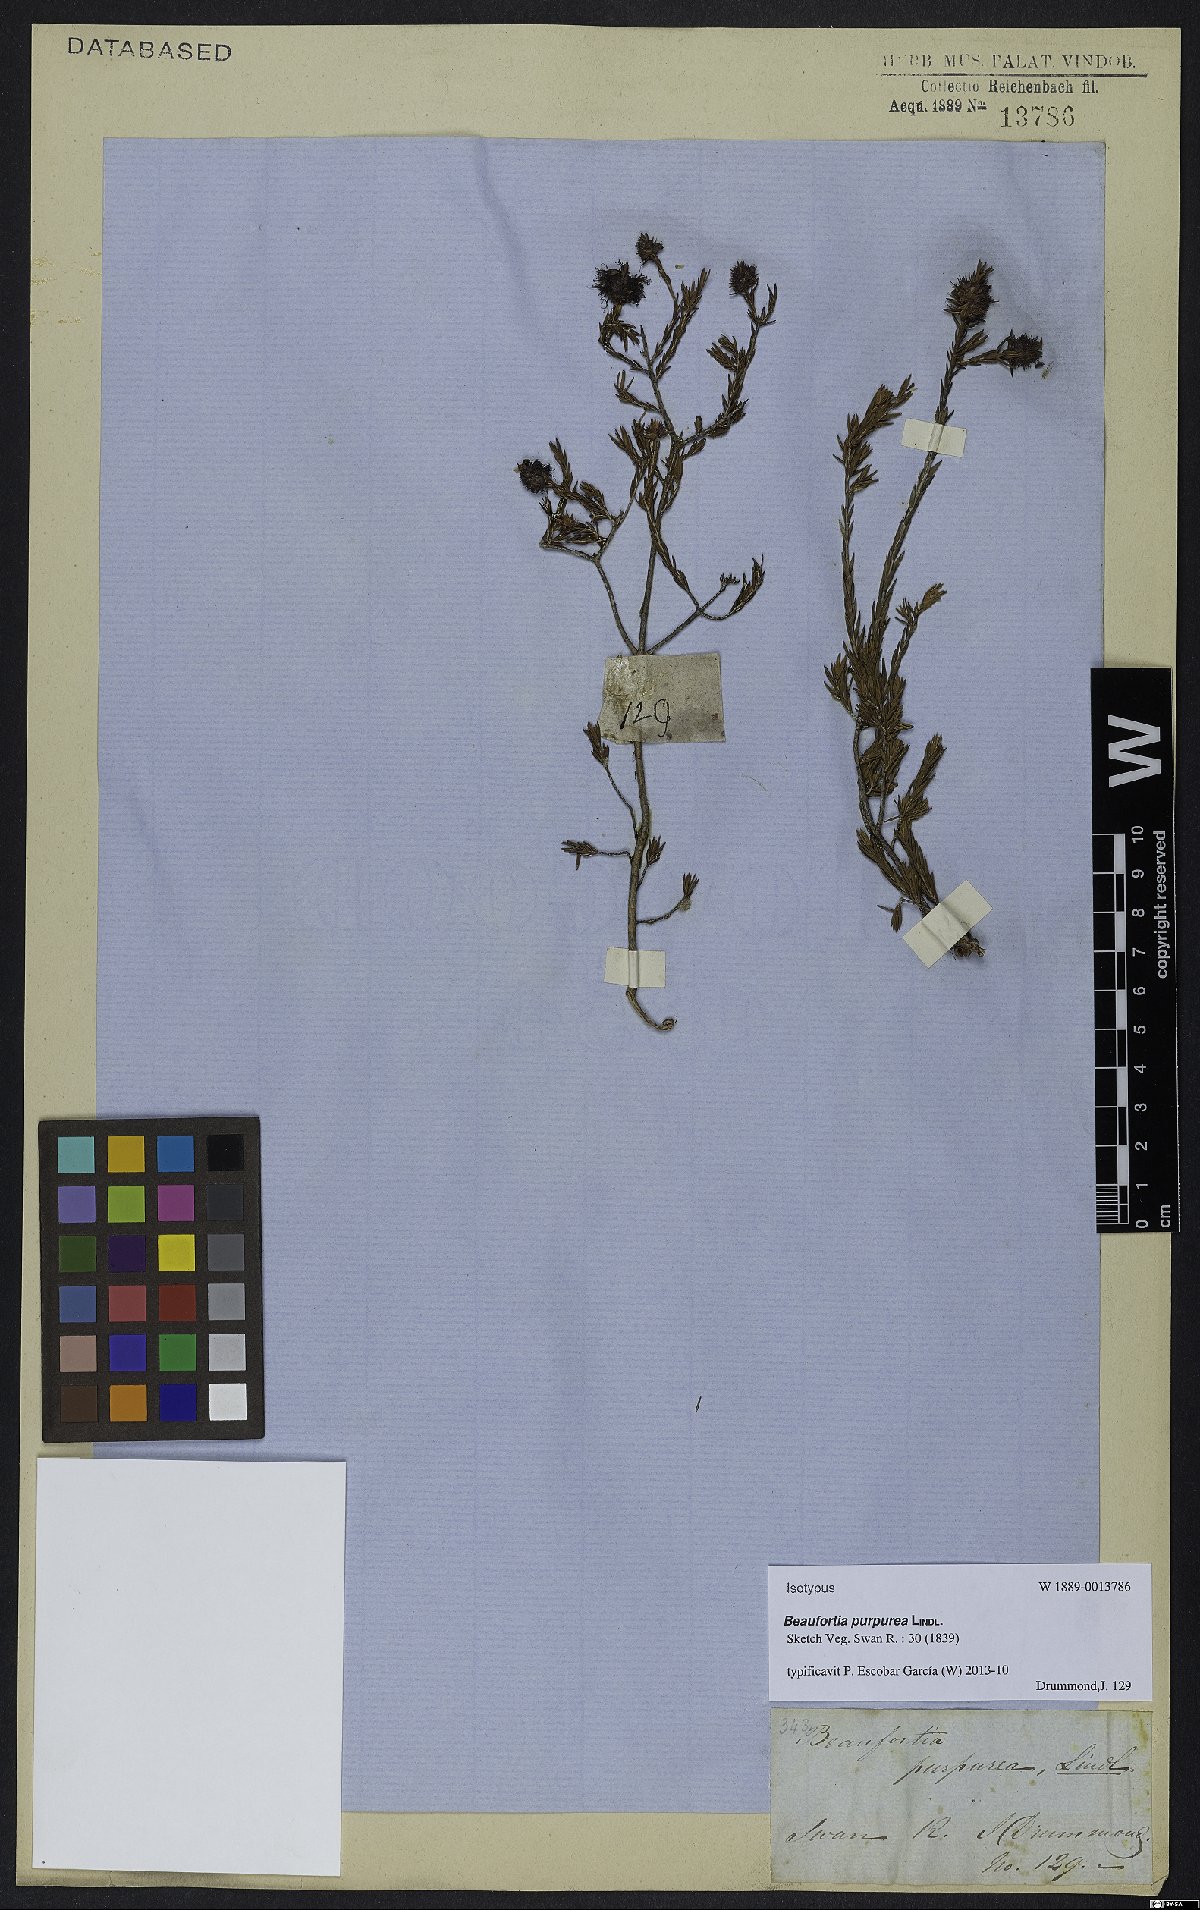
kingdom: Plantae
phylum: Tracheophyta
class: Magnoliopsida
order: Myrtales
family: Myrtaceae
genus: Melaleuca
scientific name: Melaleuca purpurea
